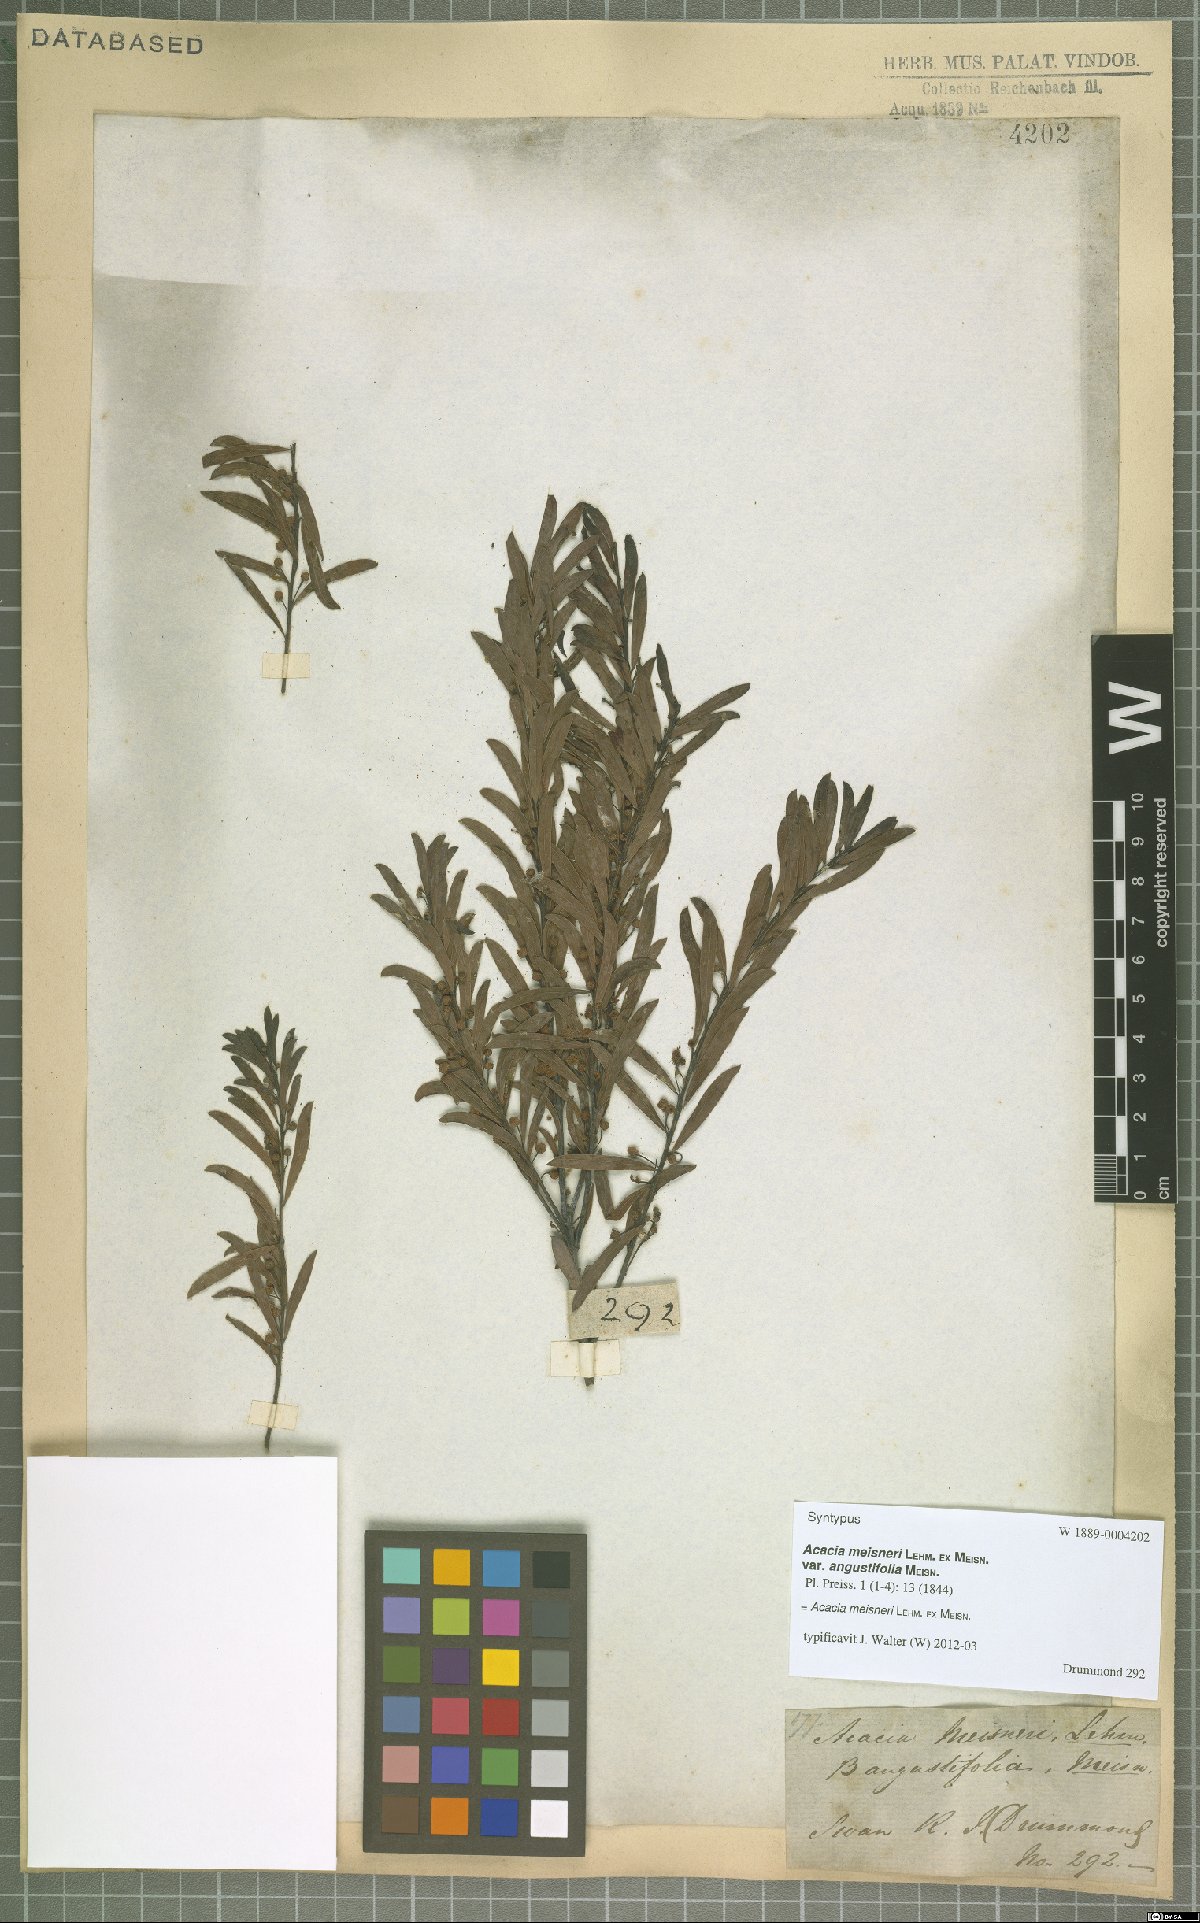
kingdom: Plantae
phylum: Tracheophyta
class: Magnoliopsida
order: Fabales
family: Fabaceae
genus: Acacia
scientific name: Acacia meisneri
